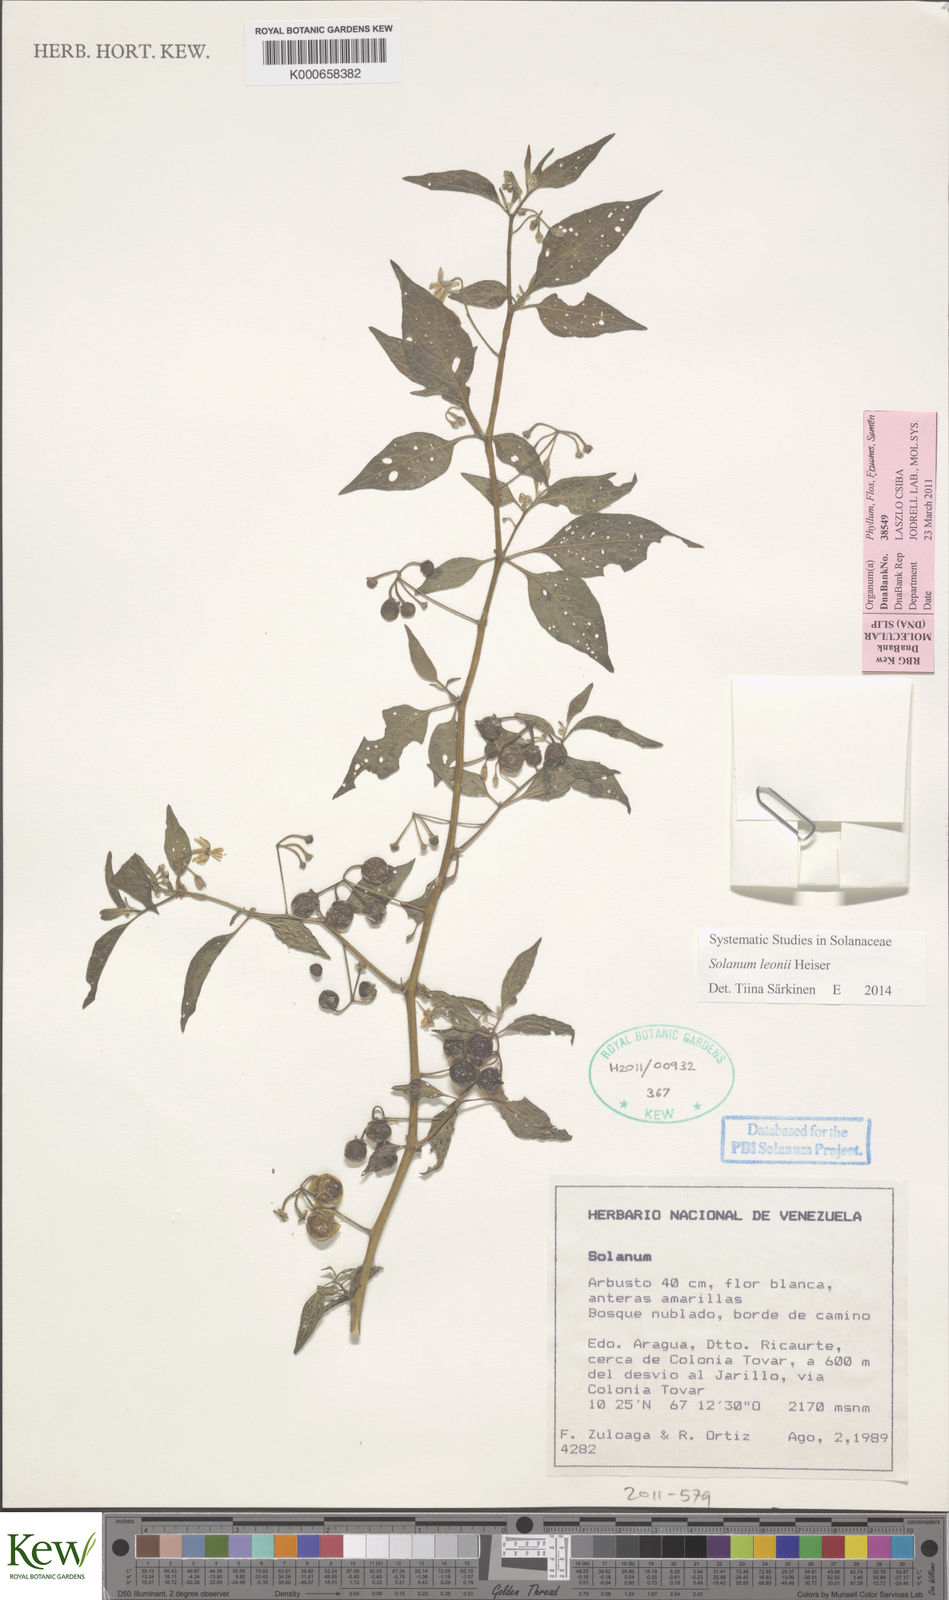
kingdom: Plantae
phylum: Tracheophyta
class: Magnoliopsida
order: Solanales
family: Solanaceae
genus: Solanum
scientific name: Solanum macrotonum
